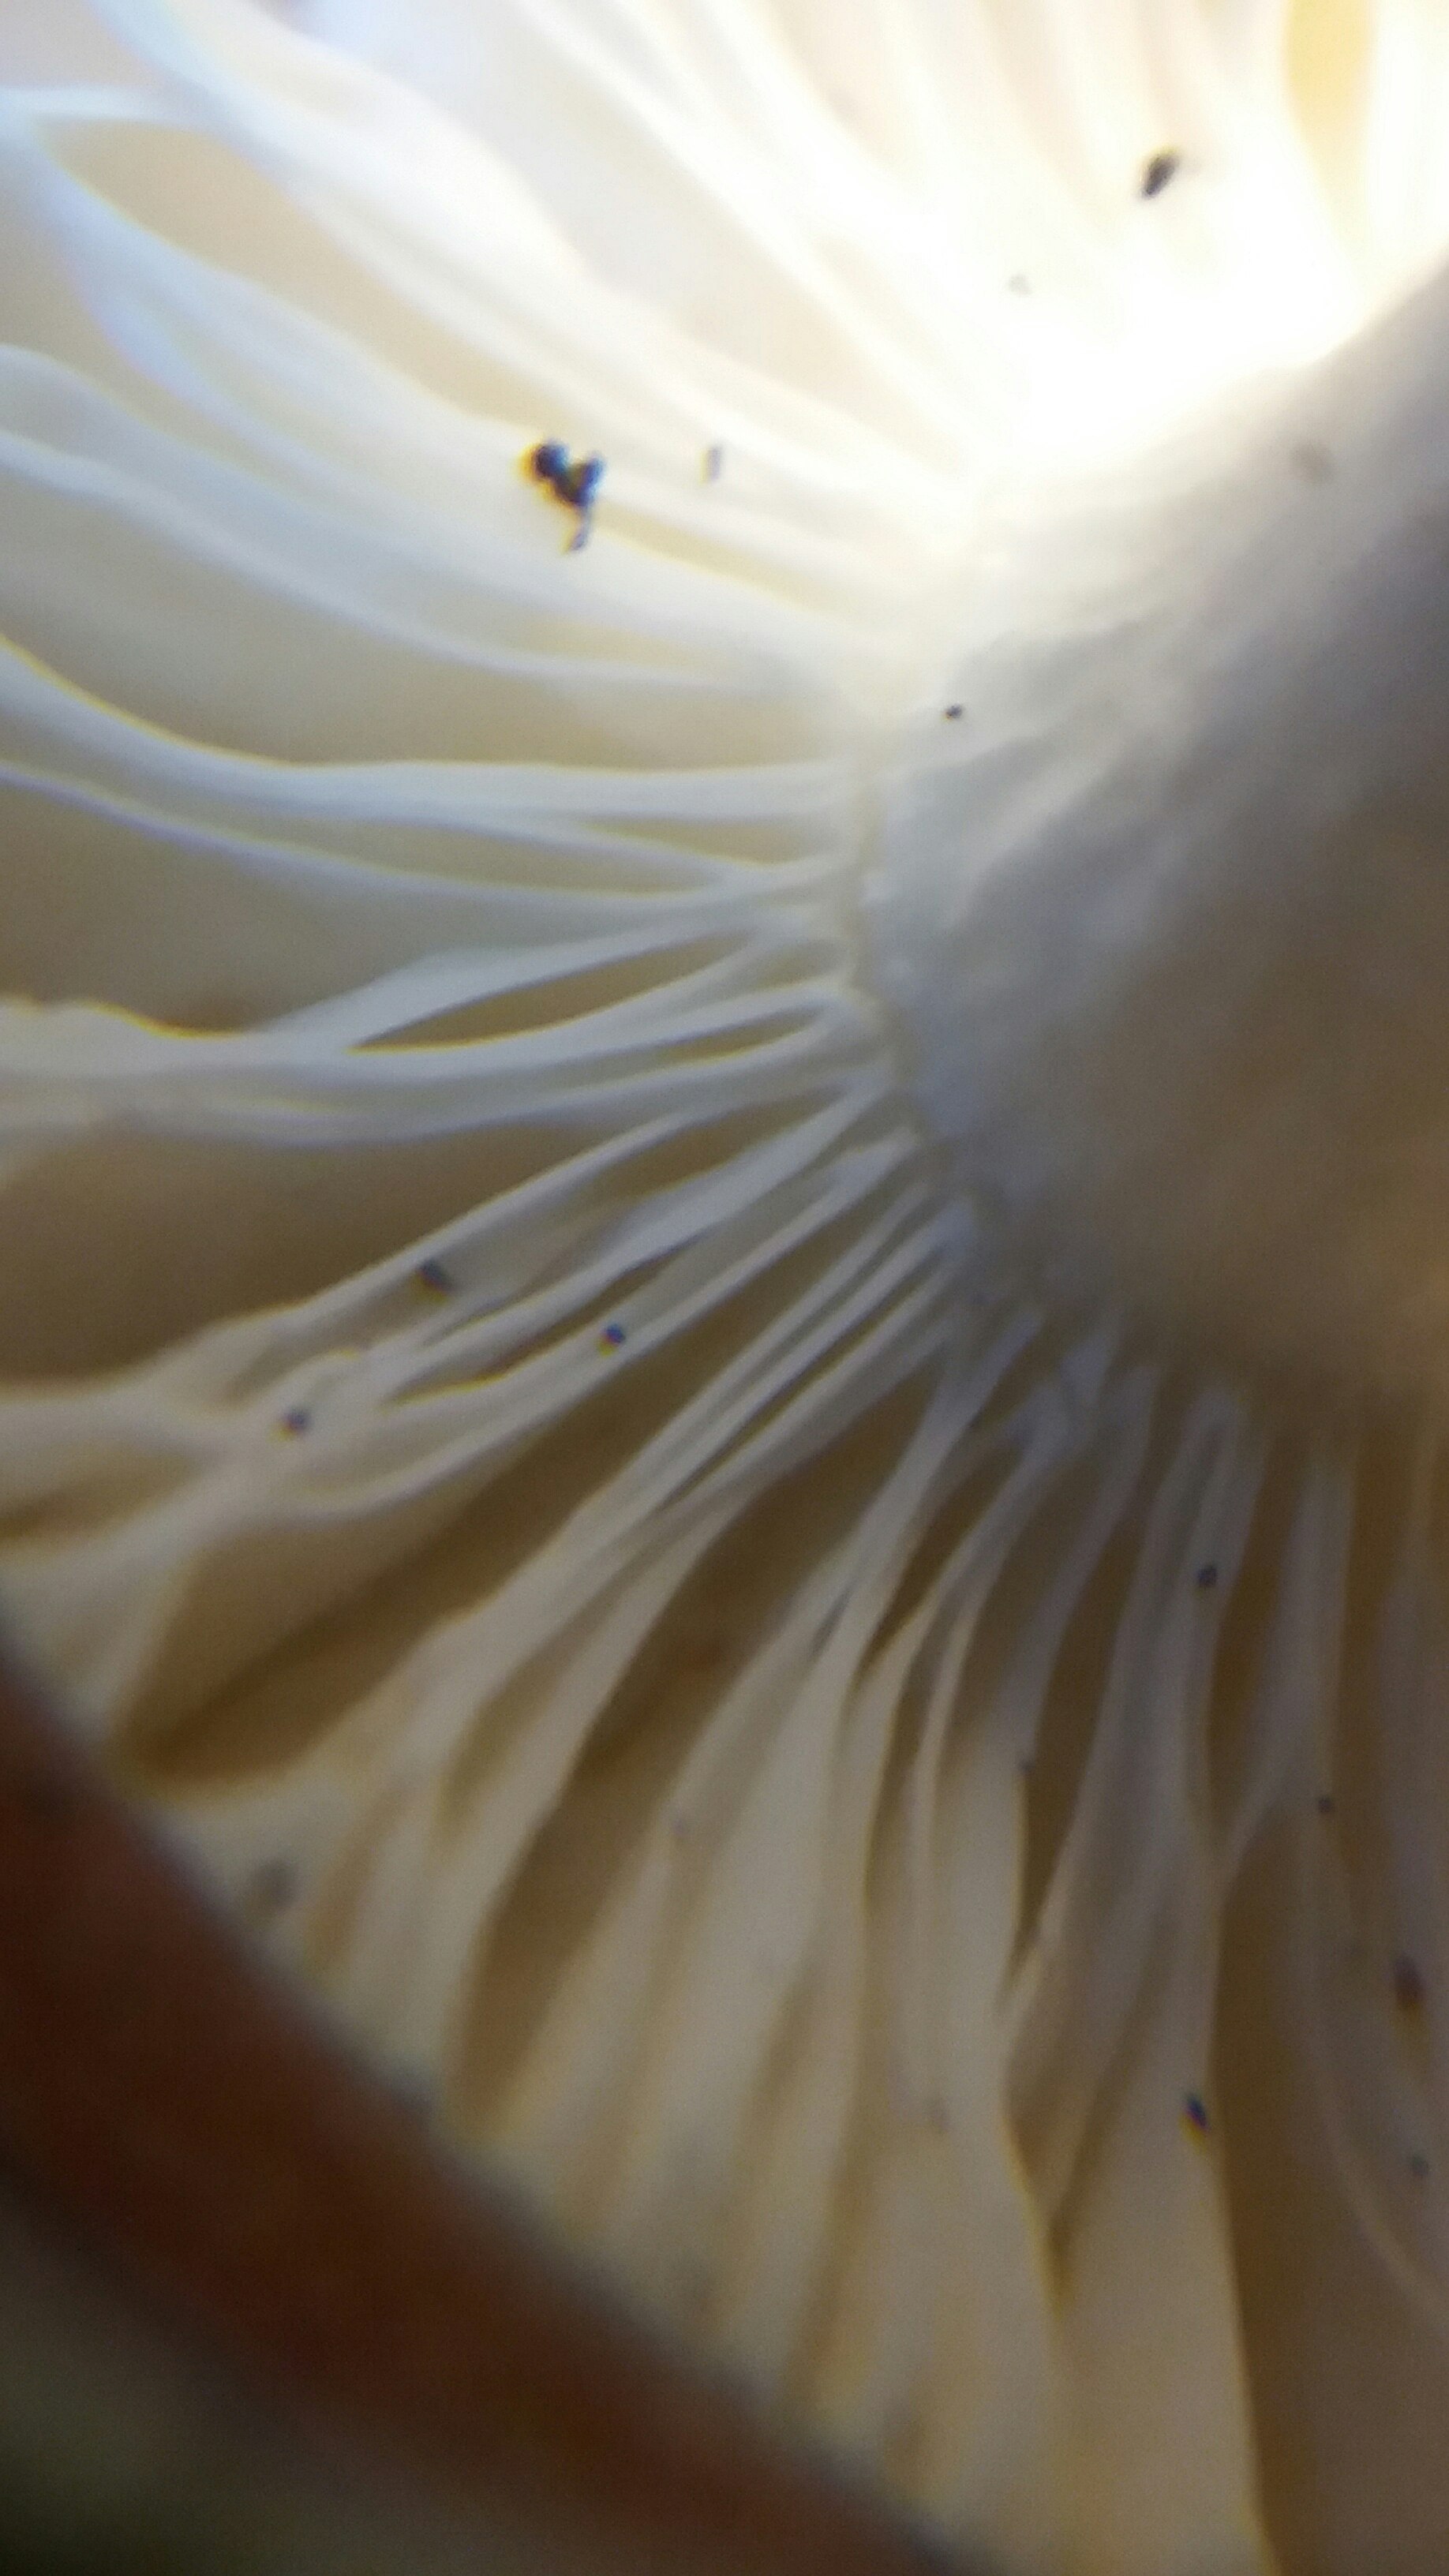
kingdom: Fungi
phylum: Basidiomycota
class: Agaricomycetes
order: Russulales
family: Russulaceae
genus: Russula
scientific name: Russula
